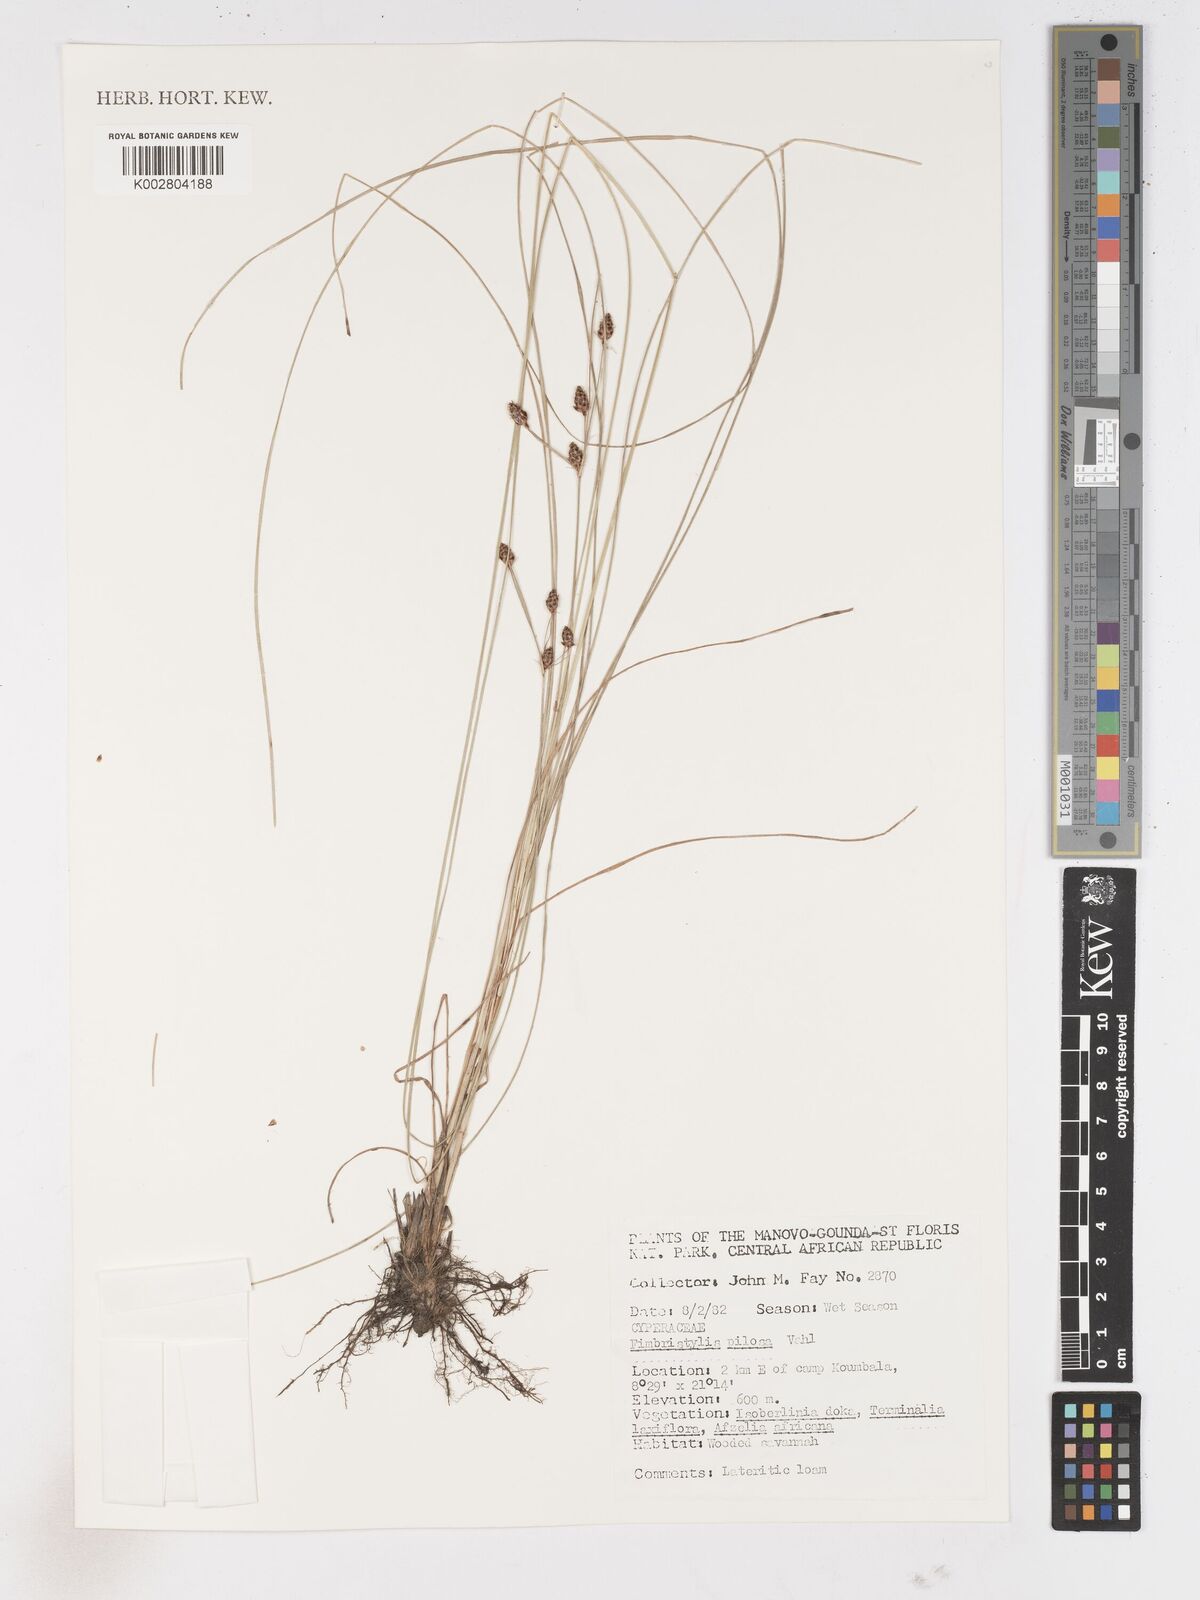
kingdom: Plantae
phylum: Tracheophyta
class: Liliopsida
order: Poales
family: Cyperaceae
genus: Fimbristylis
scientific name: Fimbristylis pilosa
